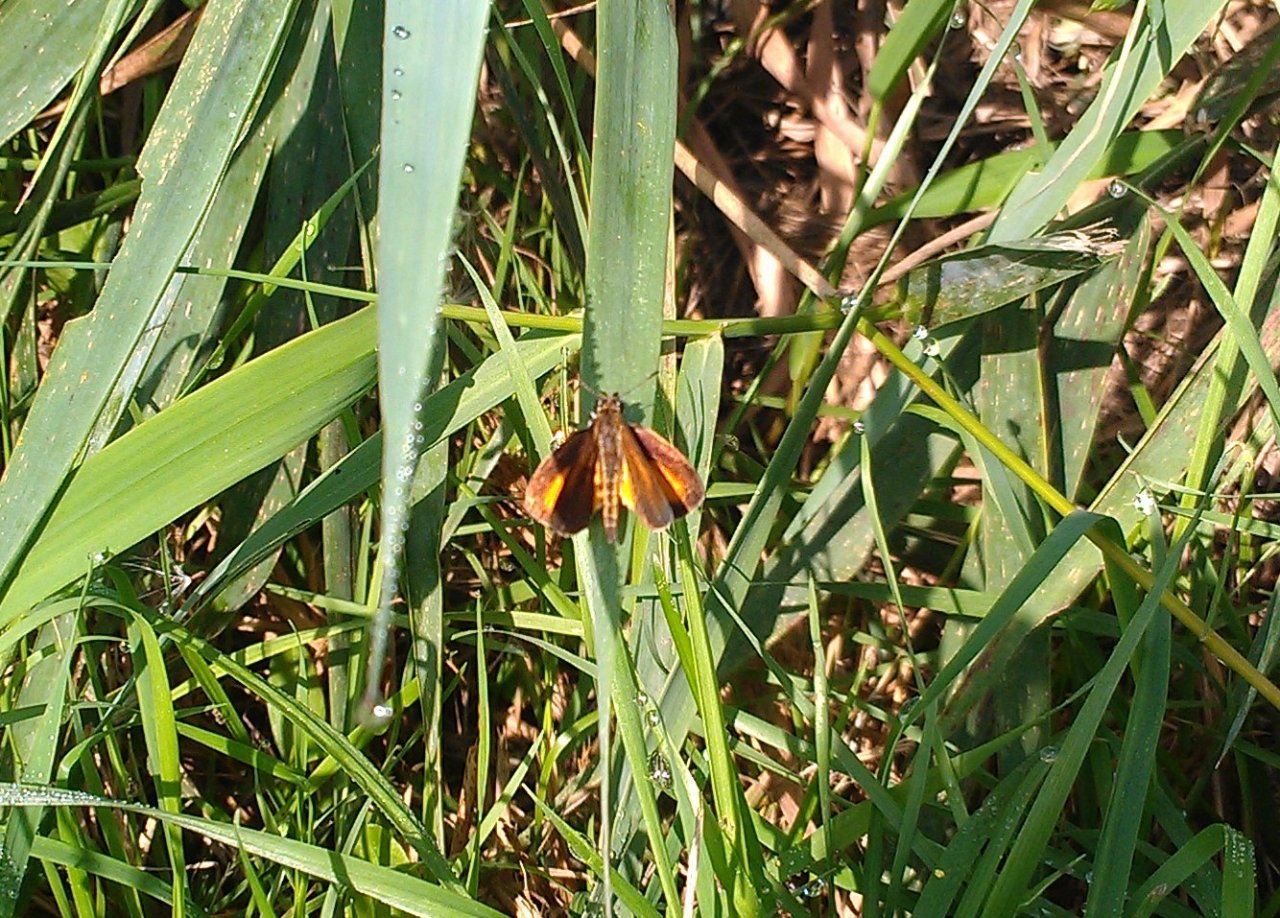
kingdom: Animalia
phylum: Arthropoda
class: Insecta
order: Lepidoptera
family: Hesperiidae
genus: Ancyloxypha
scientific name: Ancyloxypha numitor
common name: Least Skipper
